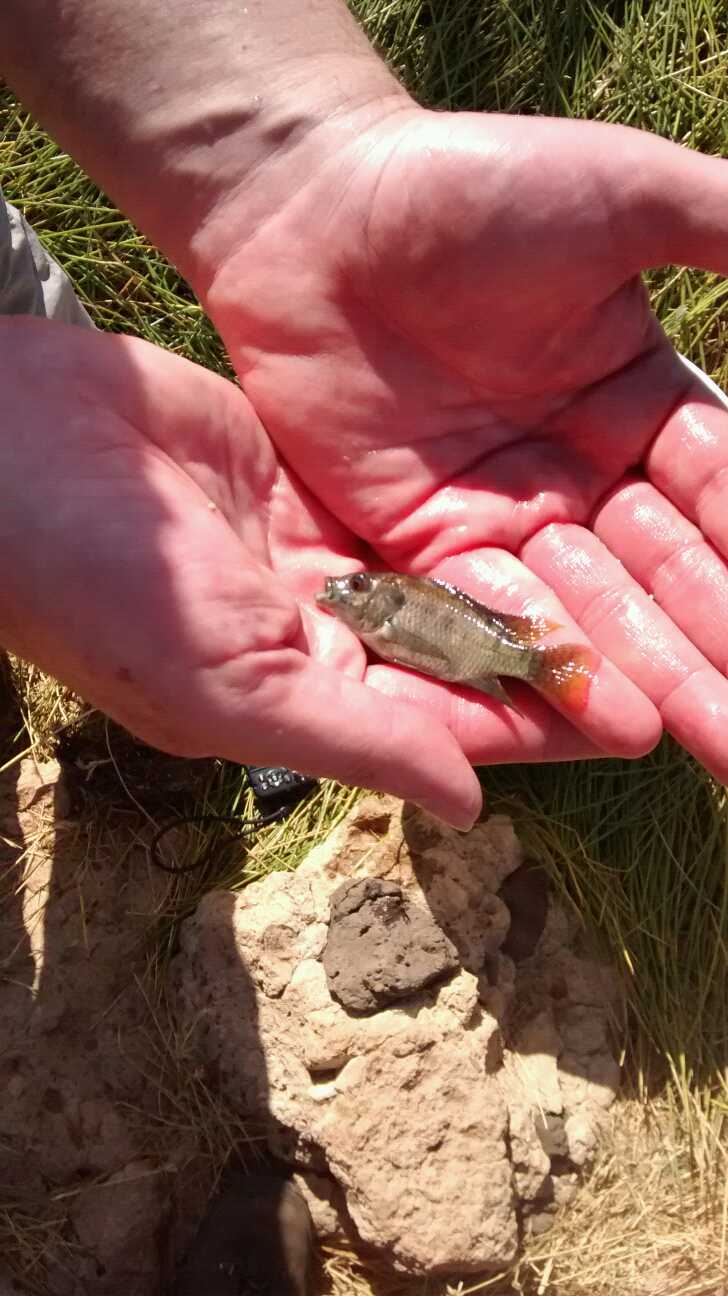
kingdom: Animalia
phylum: Chordata
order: Perciformes
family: Cichlidae
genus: Oreochromis
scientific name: Oreochromis spilurus
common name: Sabaki tilapia
